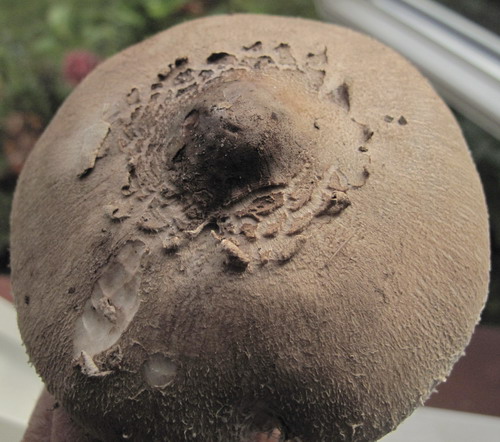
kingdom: Fungi
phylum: Basidiomycota
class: Agaricomycetes
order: Agaricales
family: Agaricaceae
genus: Macrolepiota
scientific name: Macrolepiota fuliginosa
